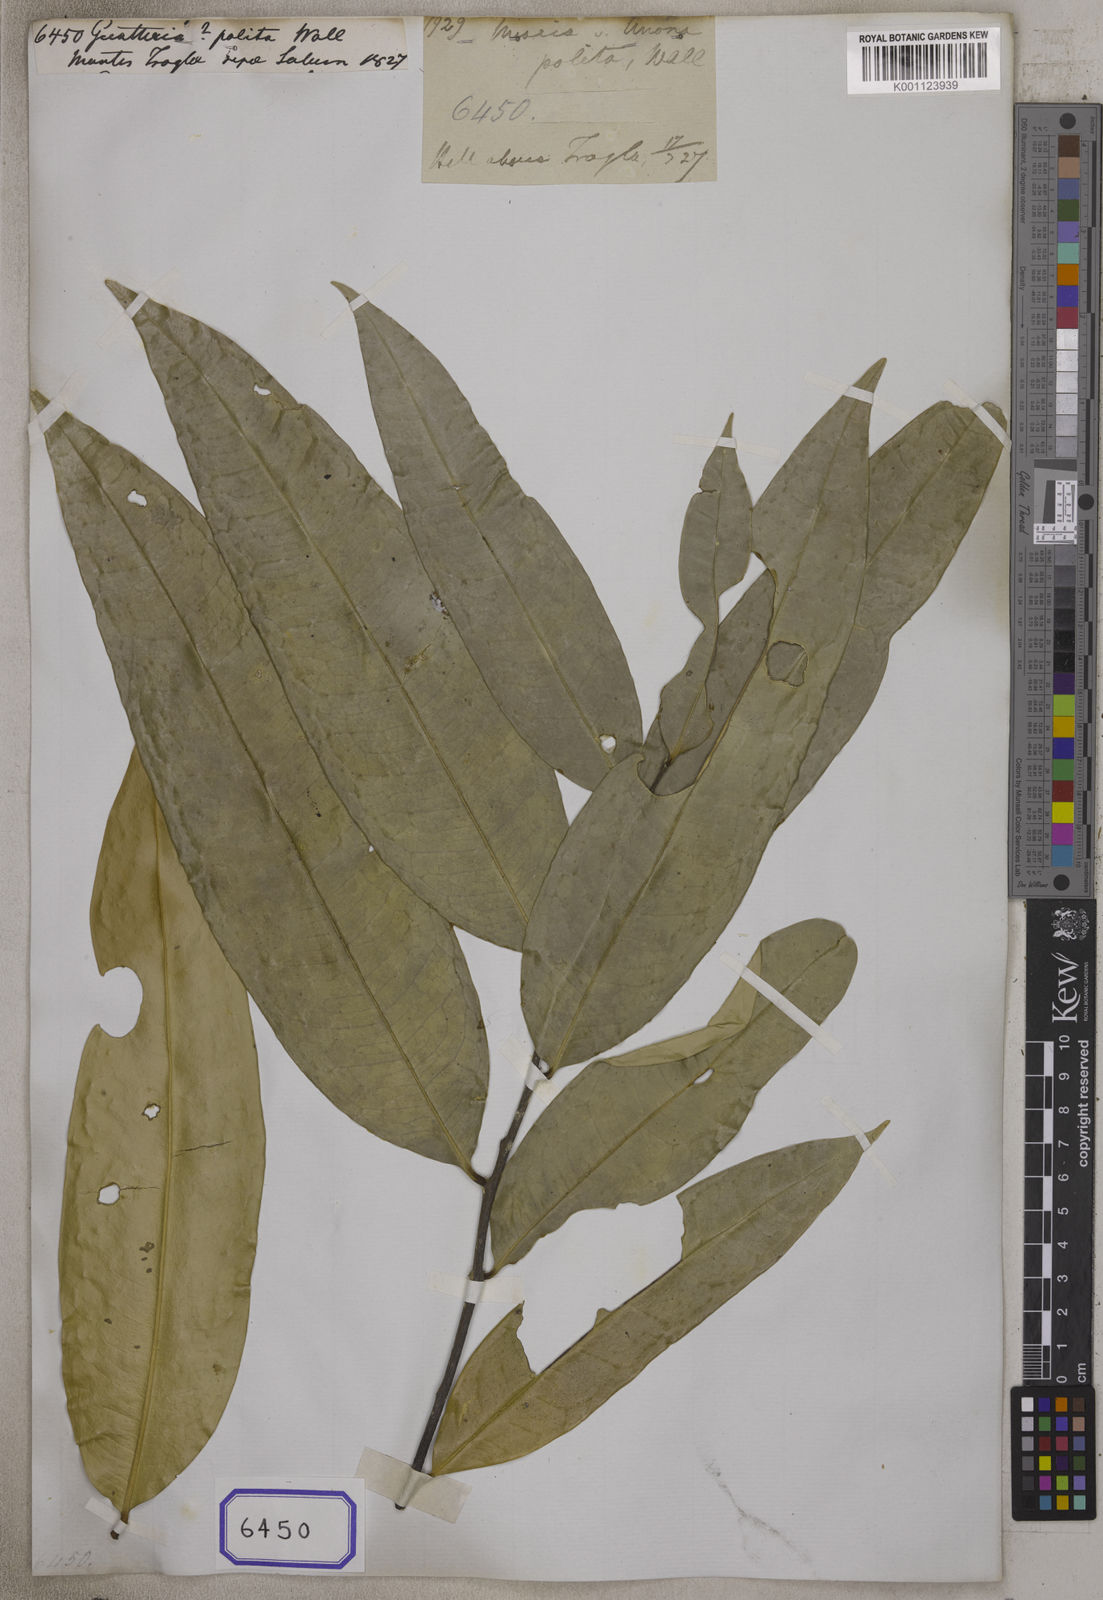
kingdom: Plantae
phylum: Tracheophyta
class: Magnoliopsida
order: Magnoliales
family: Annonaceae
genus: Guatteria
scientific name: Guatteria
